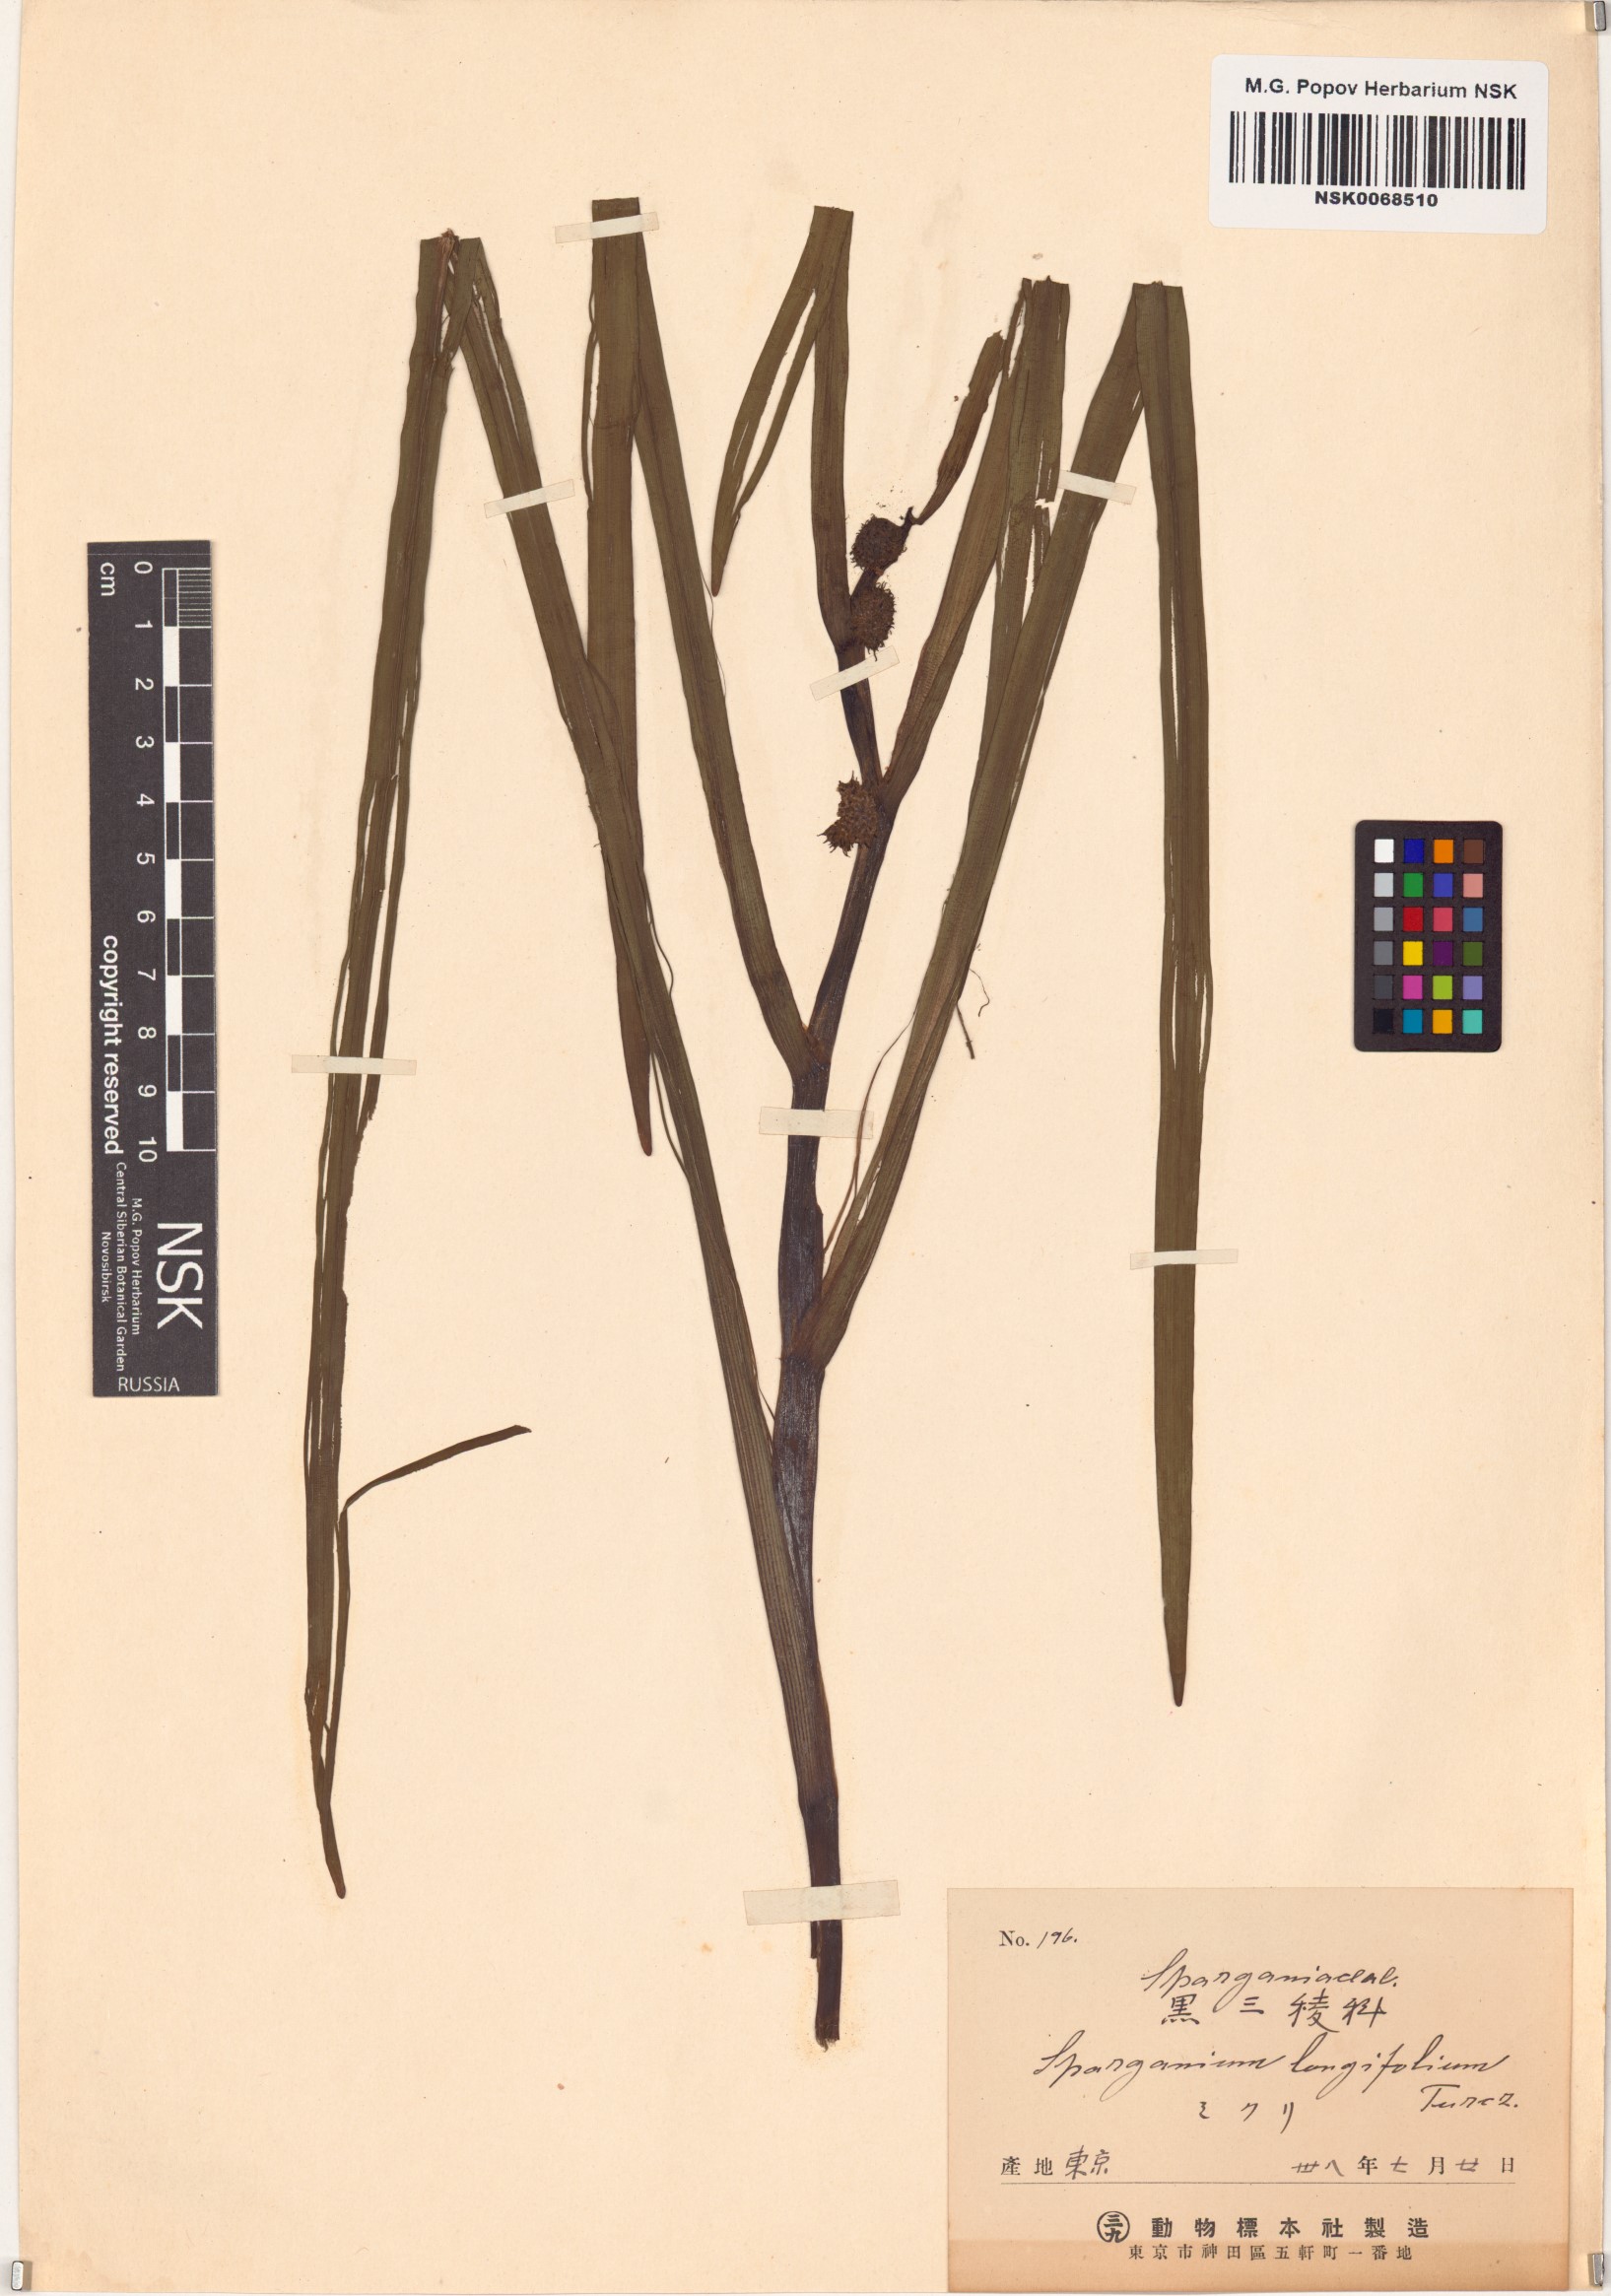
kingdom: Plantae
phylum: Tracheophyta
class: Liliopsida
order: Poales
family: Typhaceae
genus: Sparganium
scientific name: Sparganium longifolium
